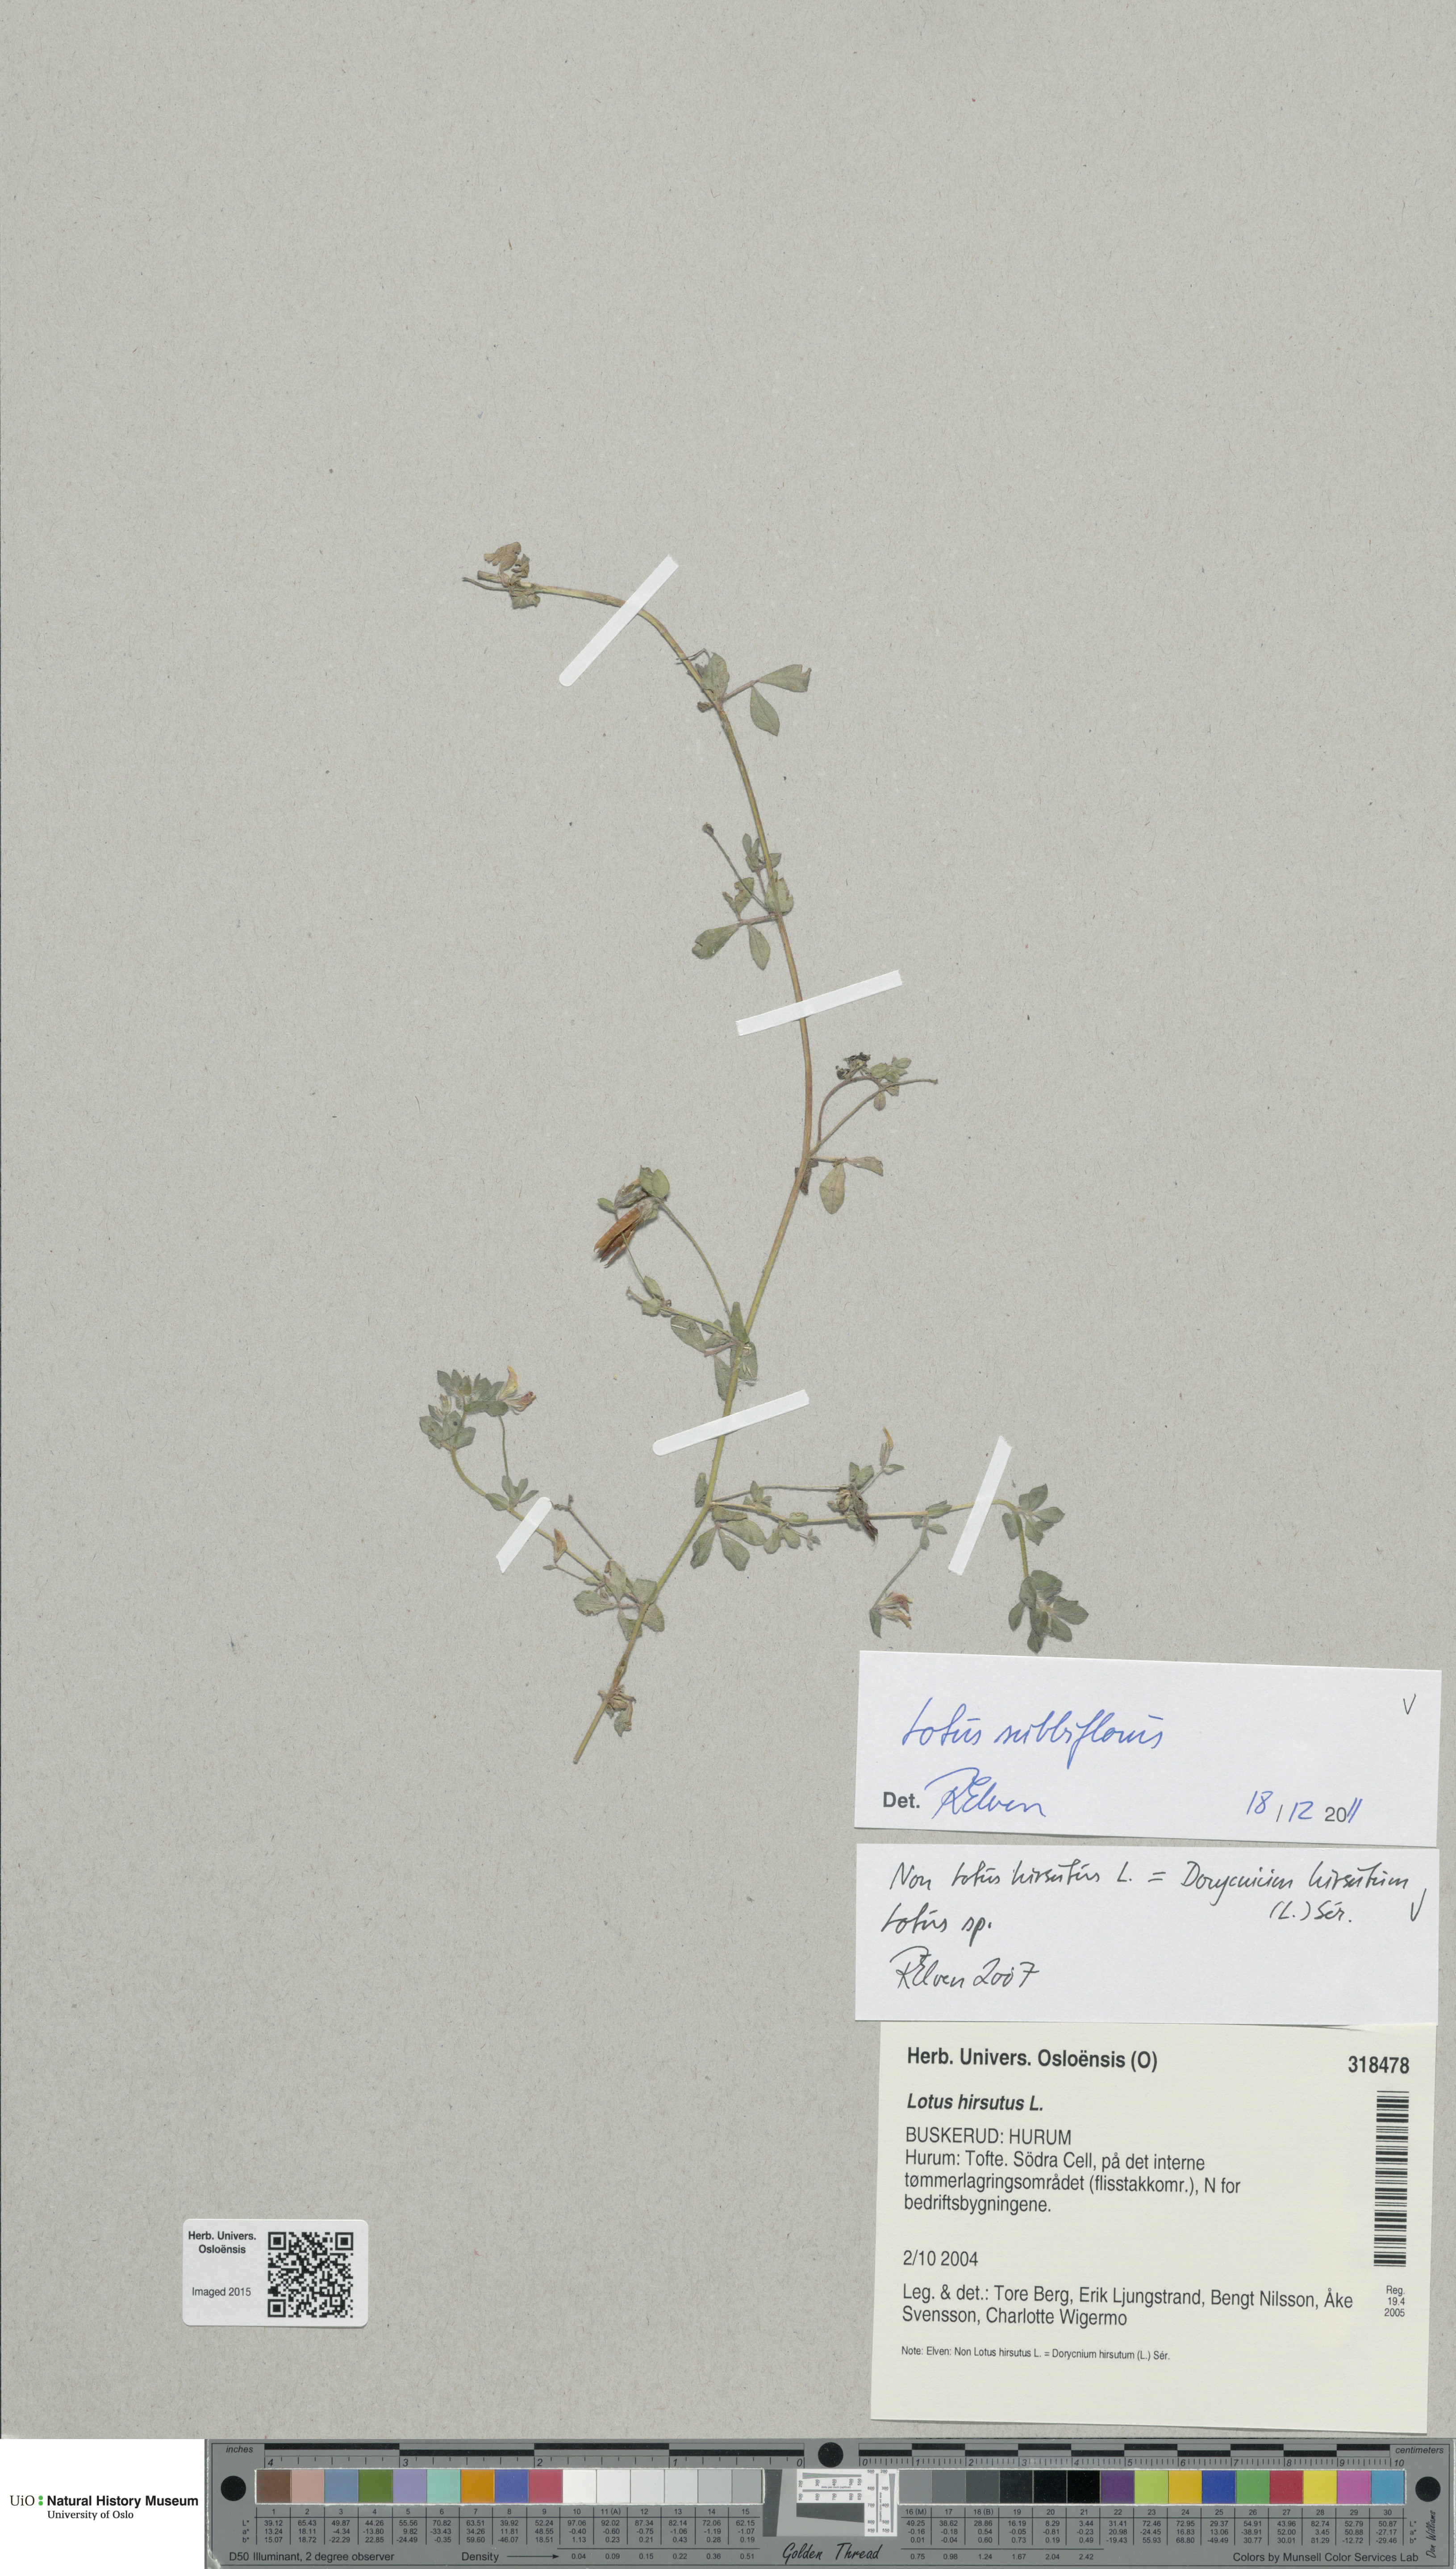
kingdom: Plantae
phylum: Tracheophyta
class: Magnoliopsida
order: Fabales
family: Fabaceae
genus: Lotus
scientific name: Lotus subbiflorus
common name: Hairy bird's-foot trefoil
